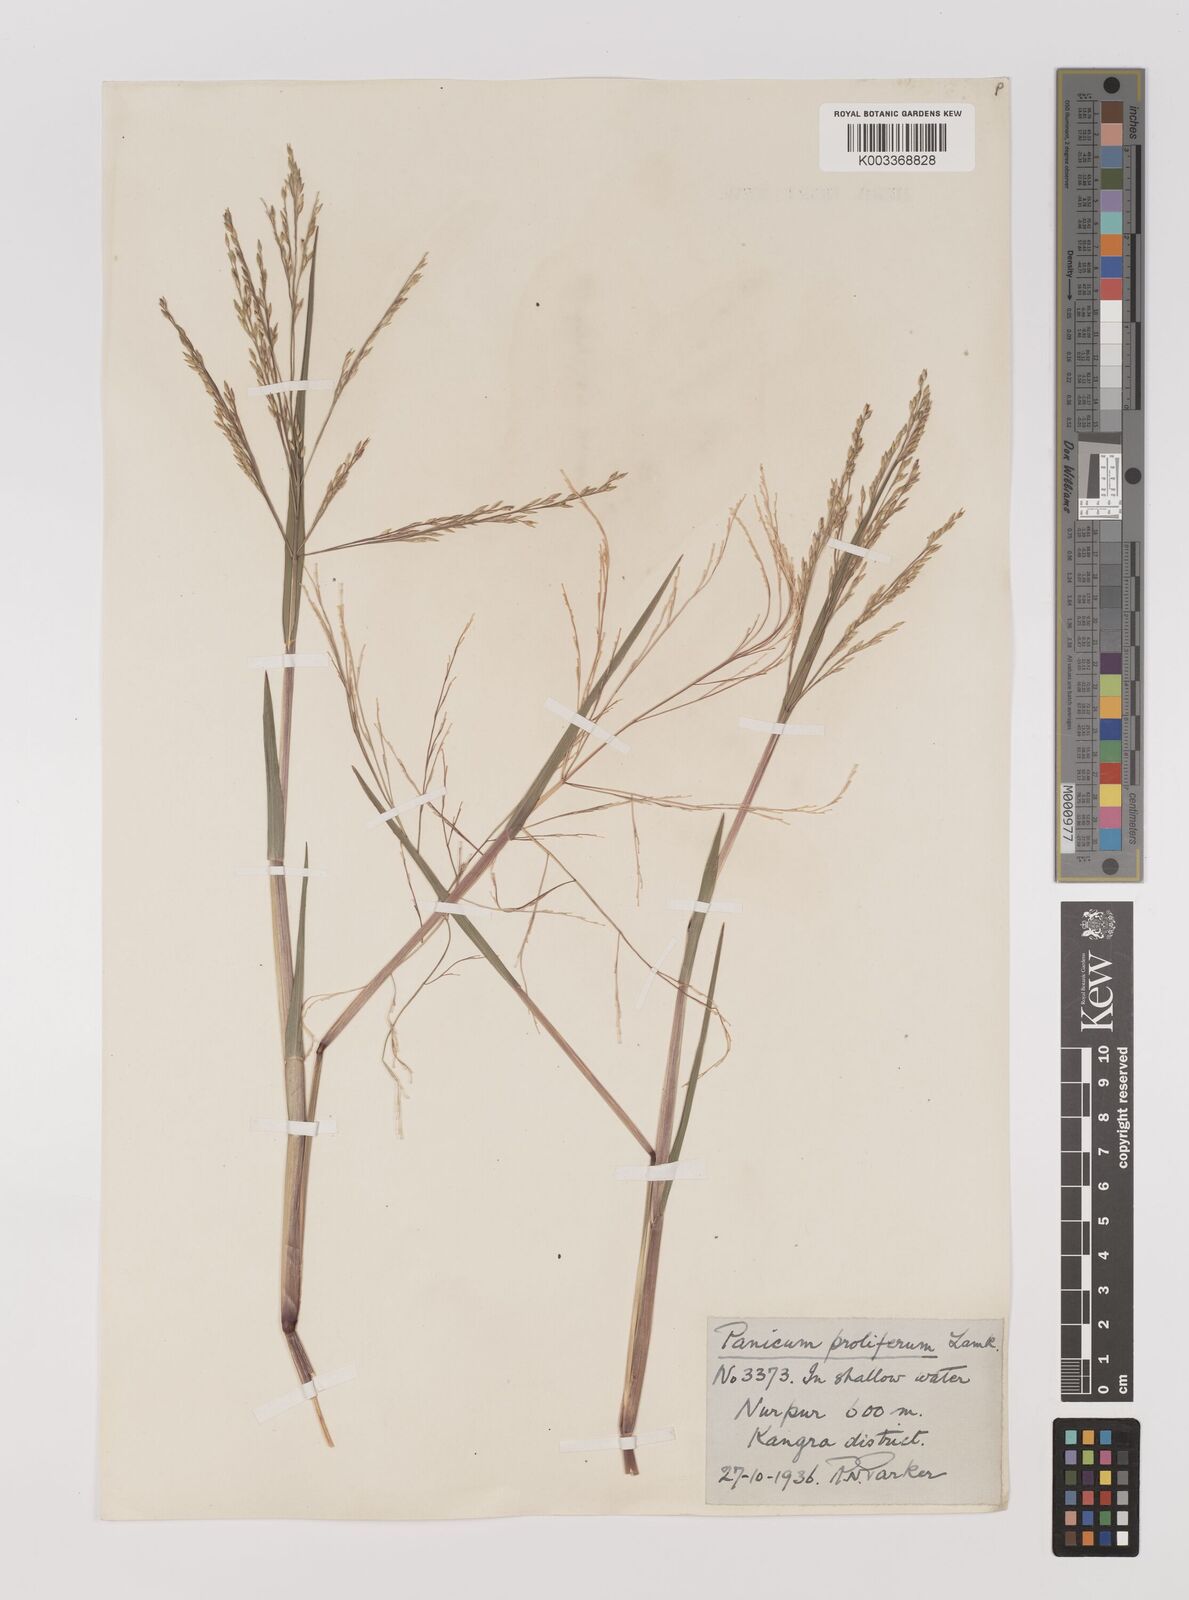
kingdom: Plantae
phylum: Tracheophyta
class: Liliopsida
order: Poales
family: Poaceae
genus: Louisiella
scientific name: Louisiella paludosa
